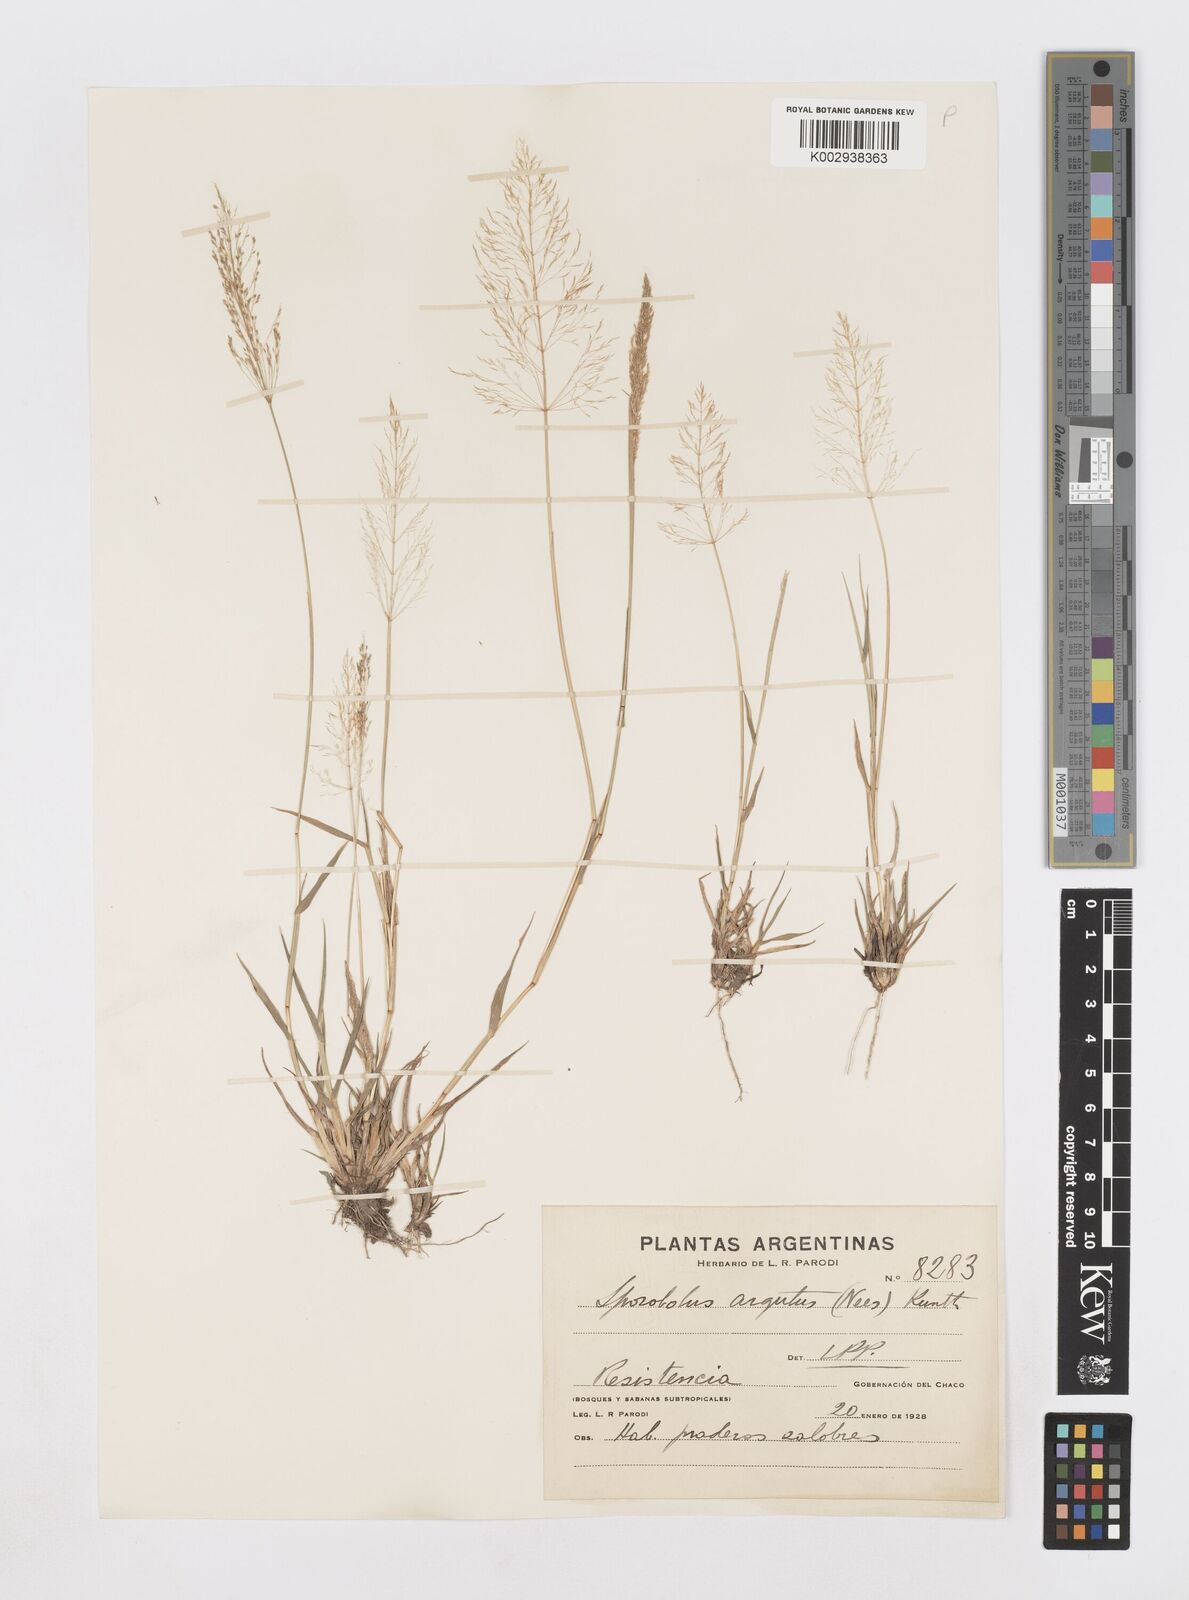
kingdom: Plantae
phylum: Tracheophyta
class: Liliopsida
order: Poales
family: Poaceae
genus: Sporobolus
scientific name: Sporobolus pyramidatus
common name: Whorled dropseed
